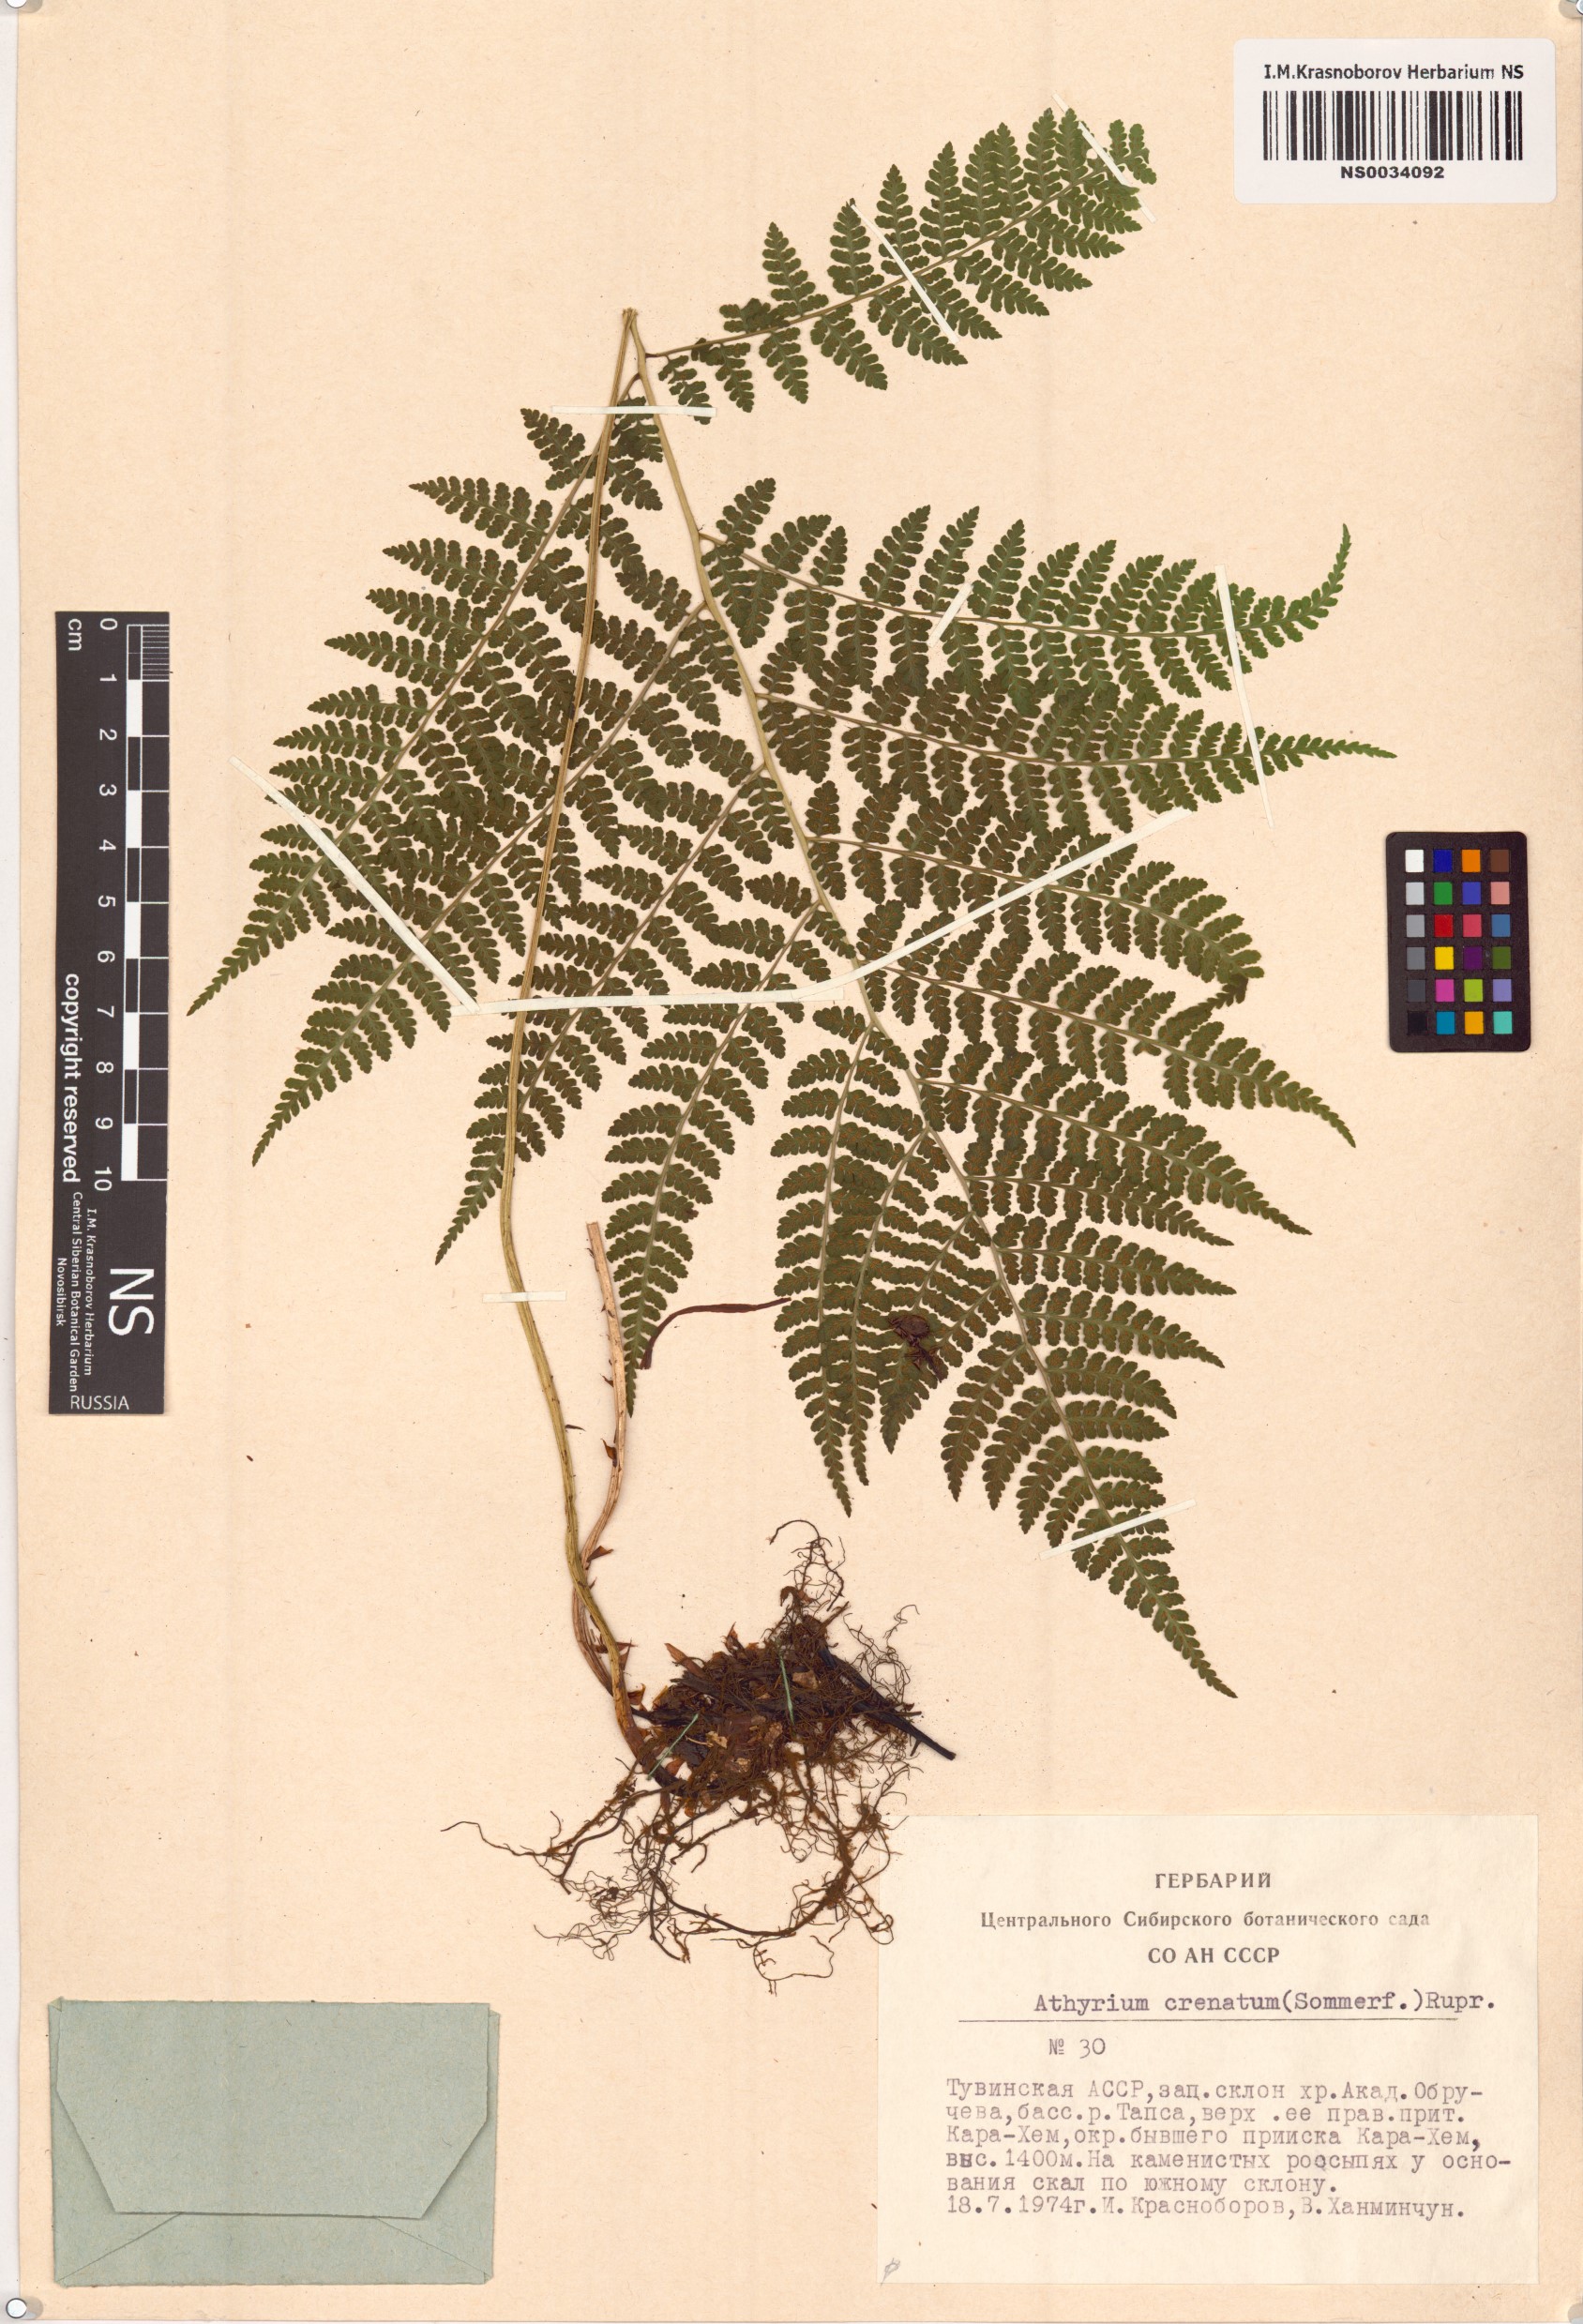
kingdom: Plantae
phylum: Tracheophyta
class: Polypodiopsida
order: Polypodiales
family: Athyriaceae
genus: Diplazium
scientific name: Diplazium sibiricum
